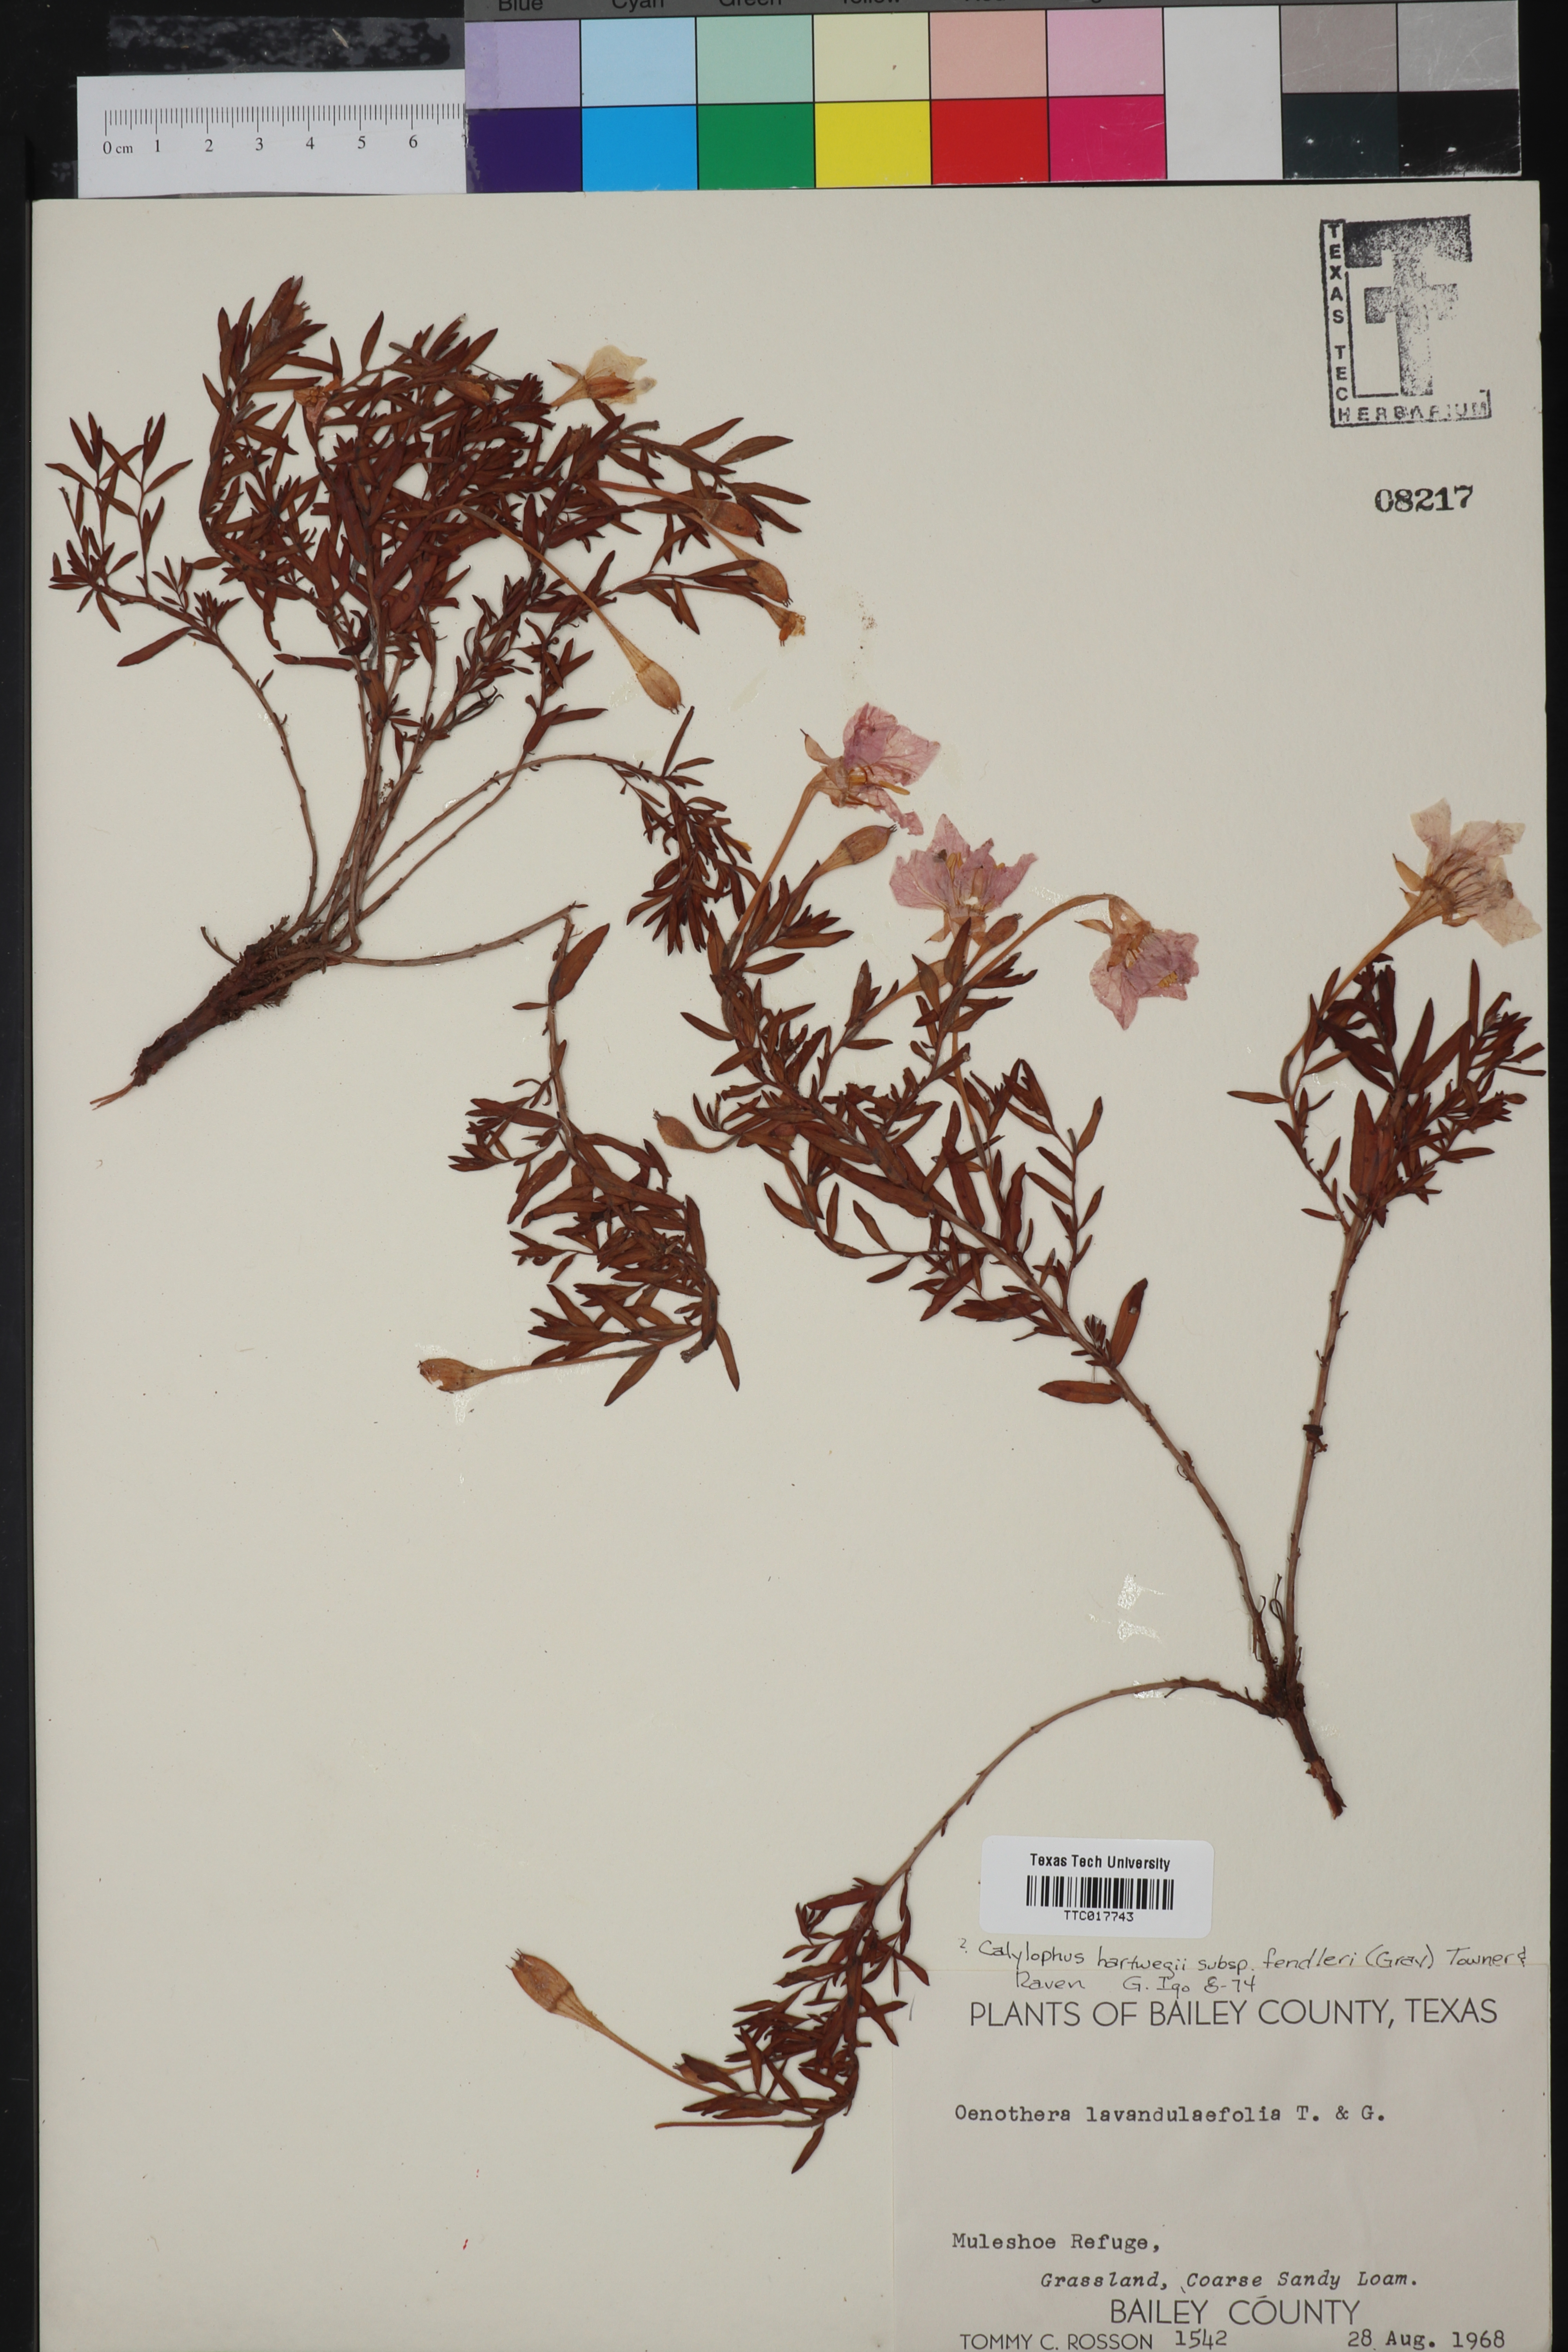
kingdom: Plantae
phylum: Tracheophyta
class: Magnoliopsida
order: Myrtales
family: Onagraceae
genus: Oenothera
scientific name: Oenothera hartwegii
